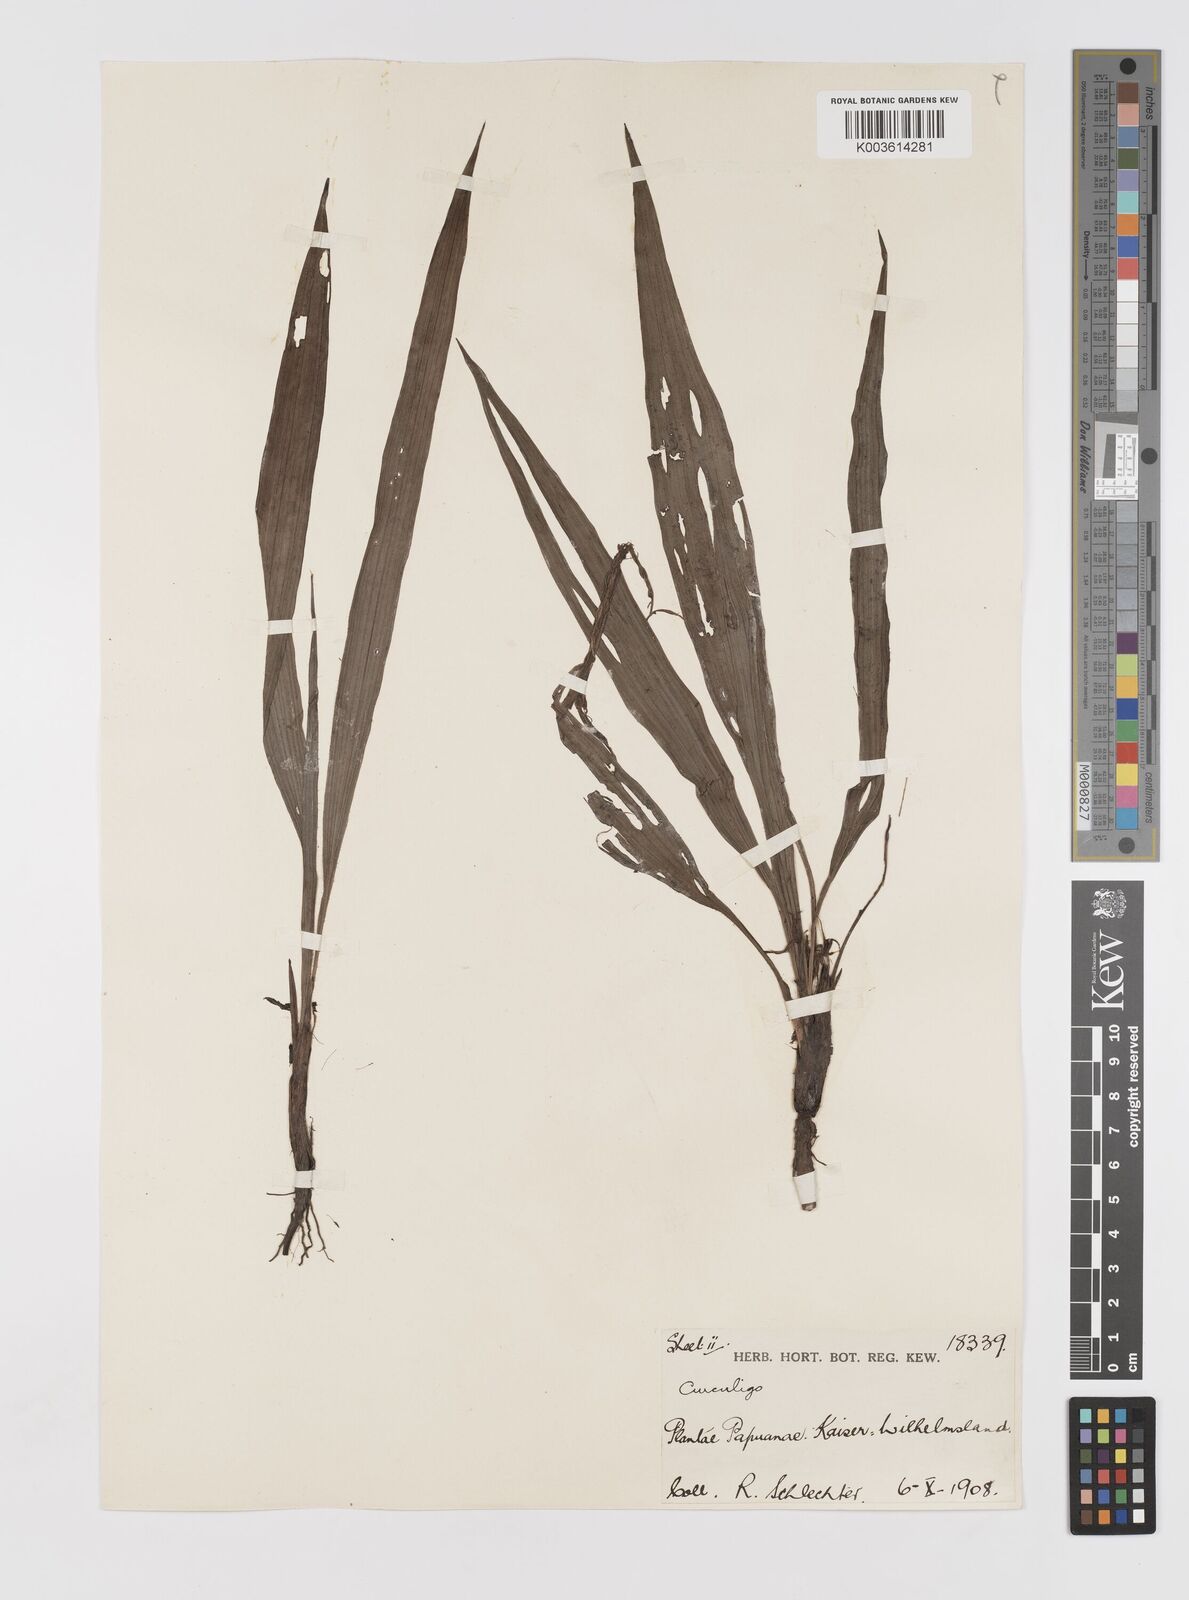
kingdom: Plantae
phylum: Tracheophyta
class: Liliopsida
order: Asparagales
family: Hypoxidaceae
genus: Curculigo
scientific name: Curculigo orchioides
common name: Golden eye-grass
